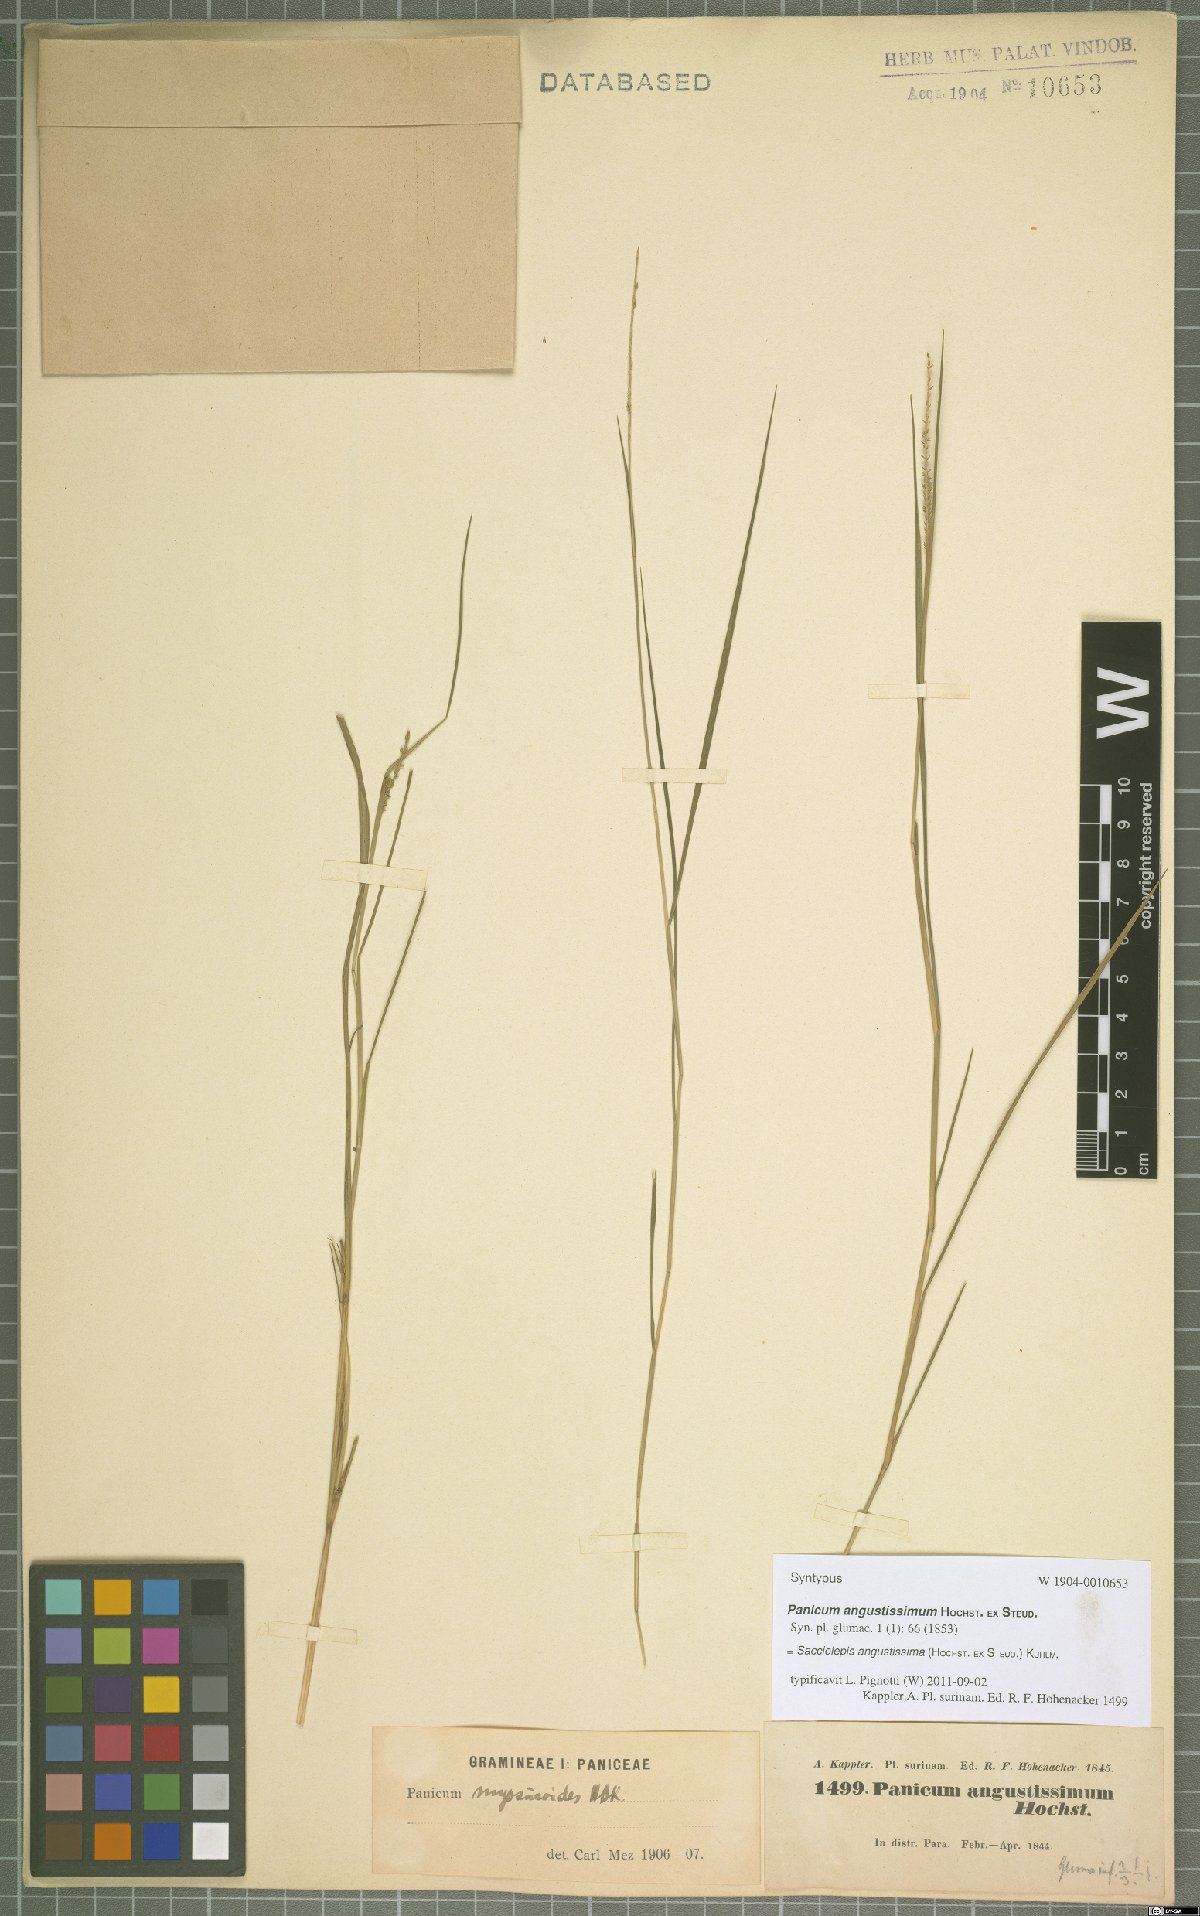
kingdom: Plantae
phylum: Tracheophyta
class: Liliopsida
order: Poales
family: Poaceae
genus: Sacciolepis
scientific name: Sacciolepis angustissima
